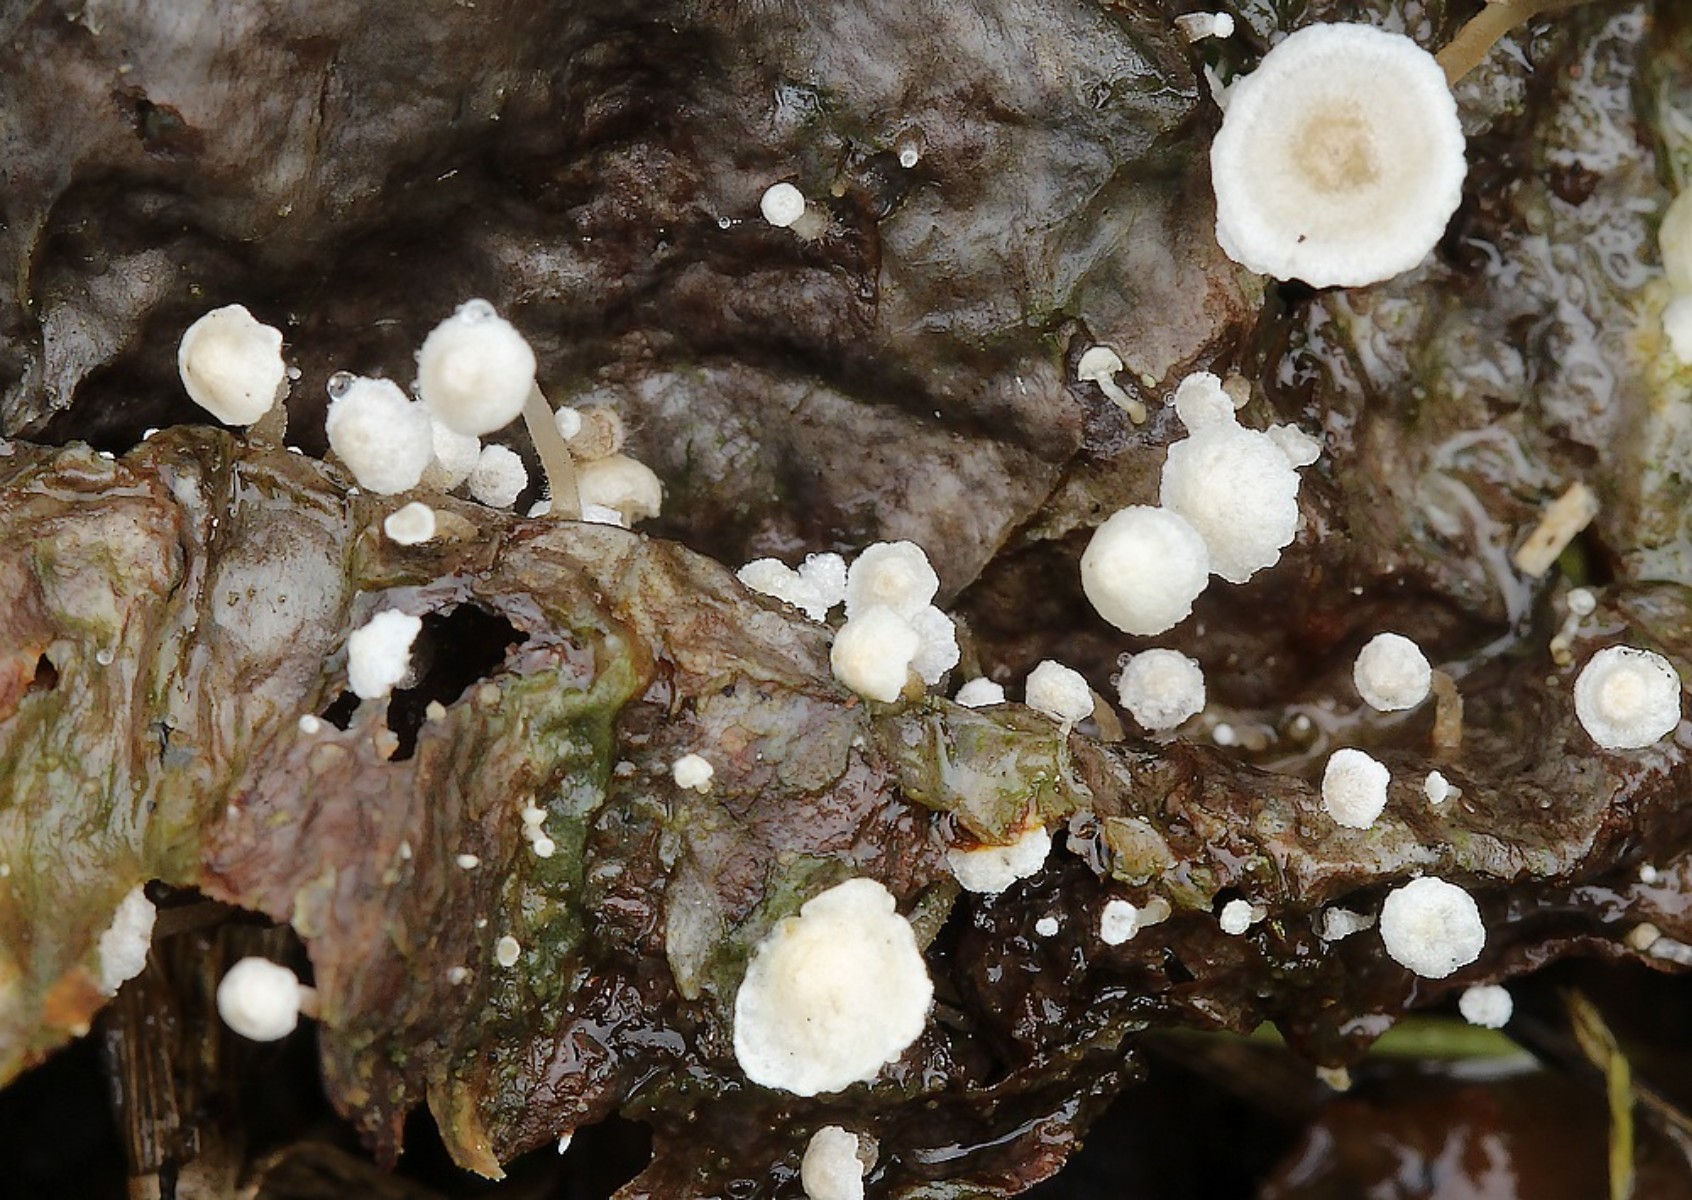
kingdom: Fungi
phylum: Basidiomycota
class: Agaricomycetes
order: Agaricales
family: Tricholomataceae
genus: Collybia
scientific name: Collybia cirrhata
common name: silke-lighat
